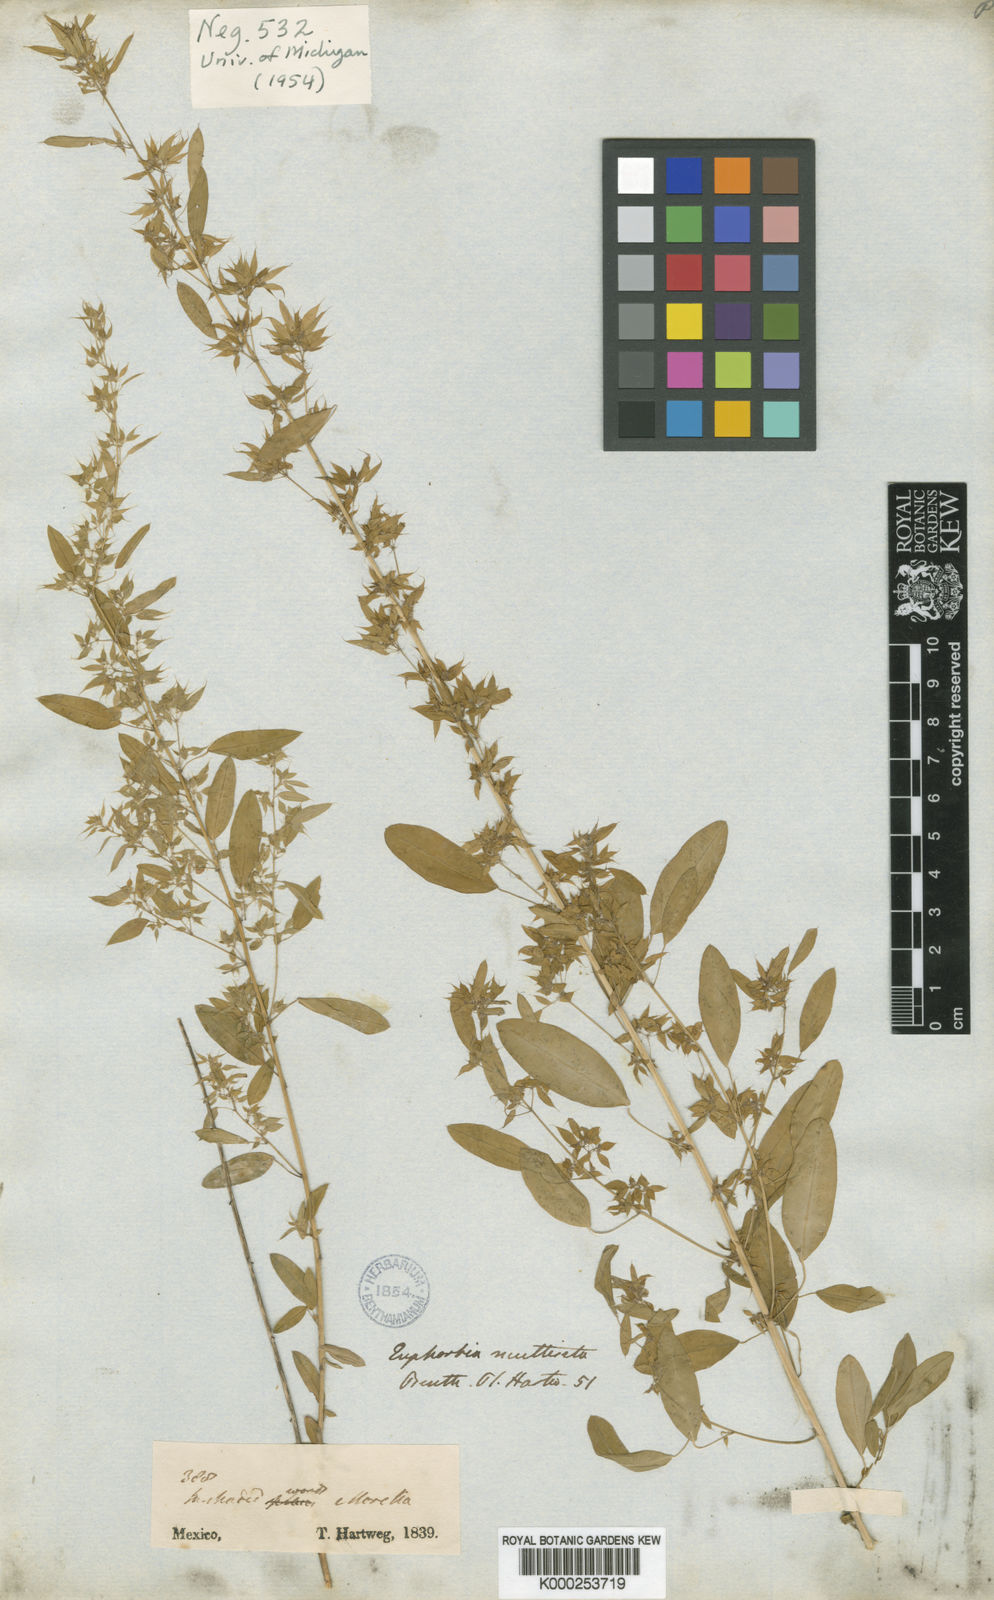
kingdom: Plantae
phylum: Tracheophyta
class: Magnoliopsida
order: Malpighiales
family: Euphorbiaceae
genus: Euphorbia
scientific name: Euphorbia multiseta
